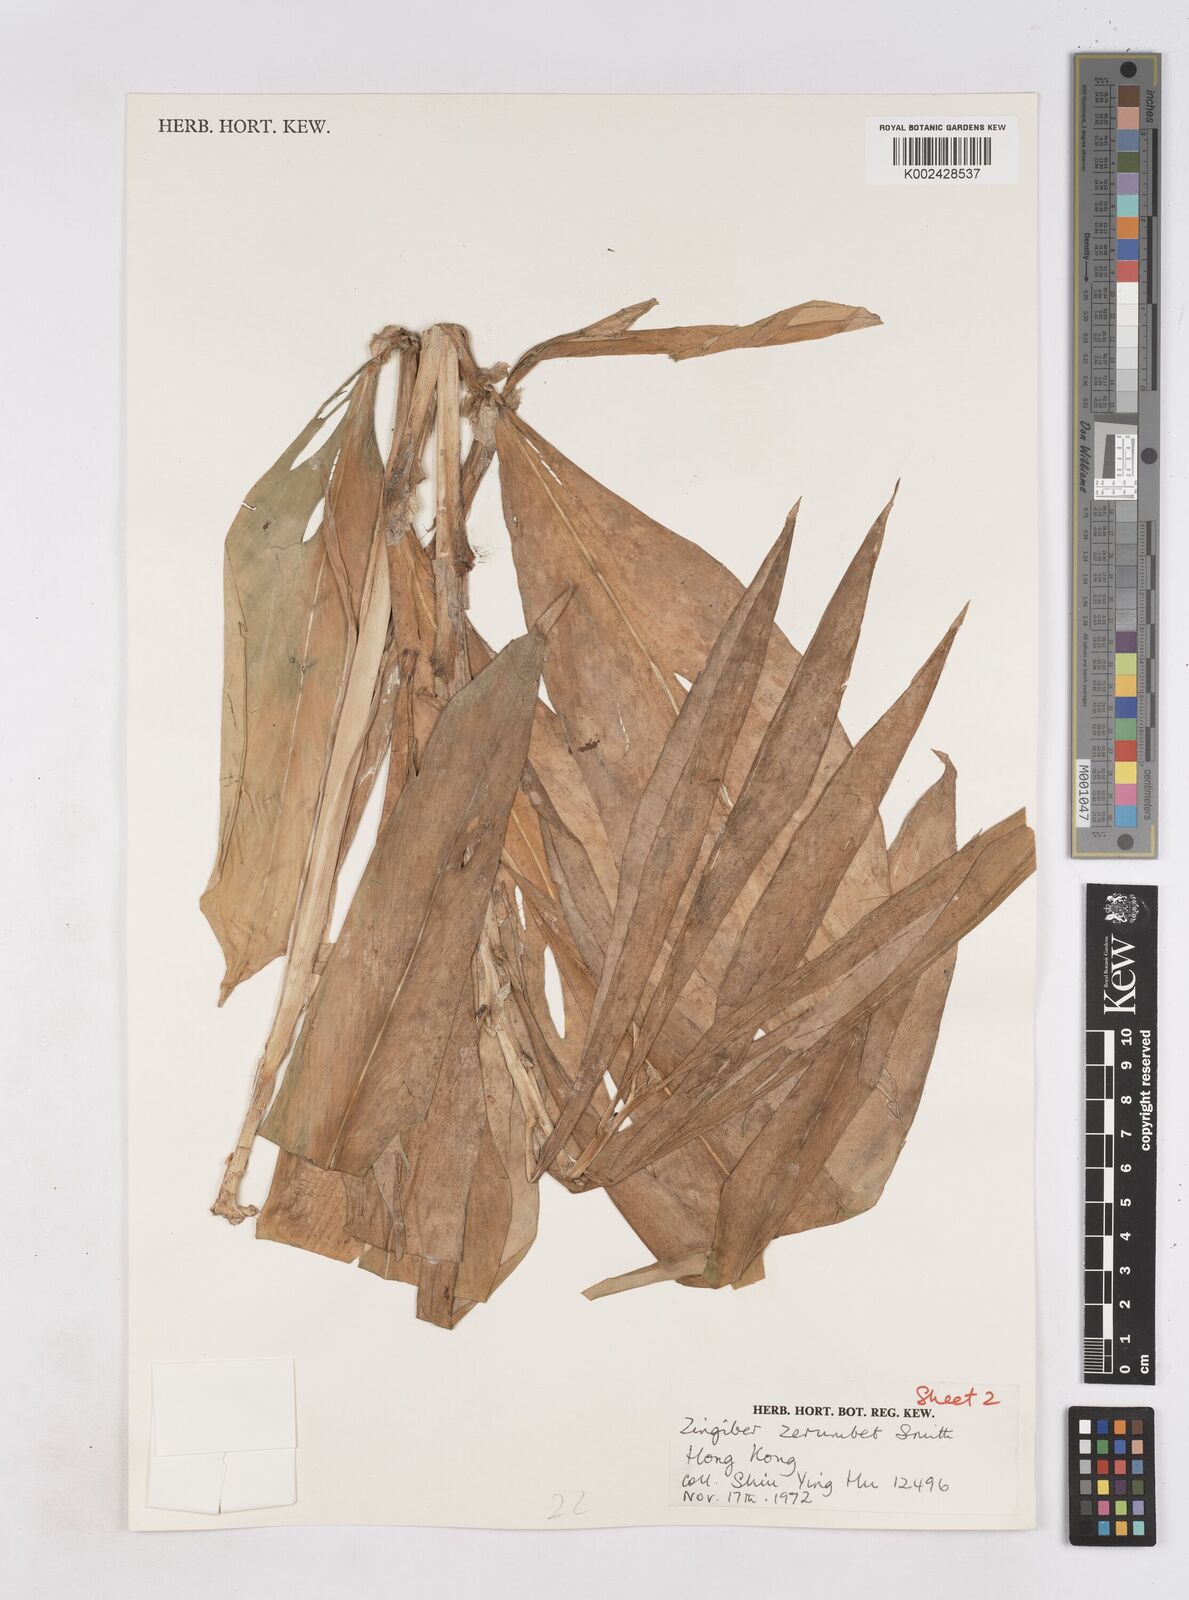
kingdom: Plantae
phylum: Tracheophyta
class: Liliopsida
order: Zingiberales
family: Zingiberaceae
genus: Zingiber
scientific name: Zingiber zerumbet
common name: Bitter ginger
